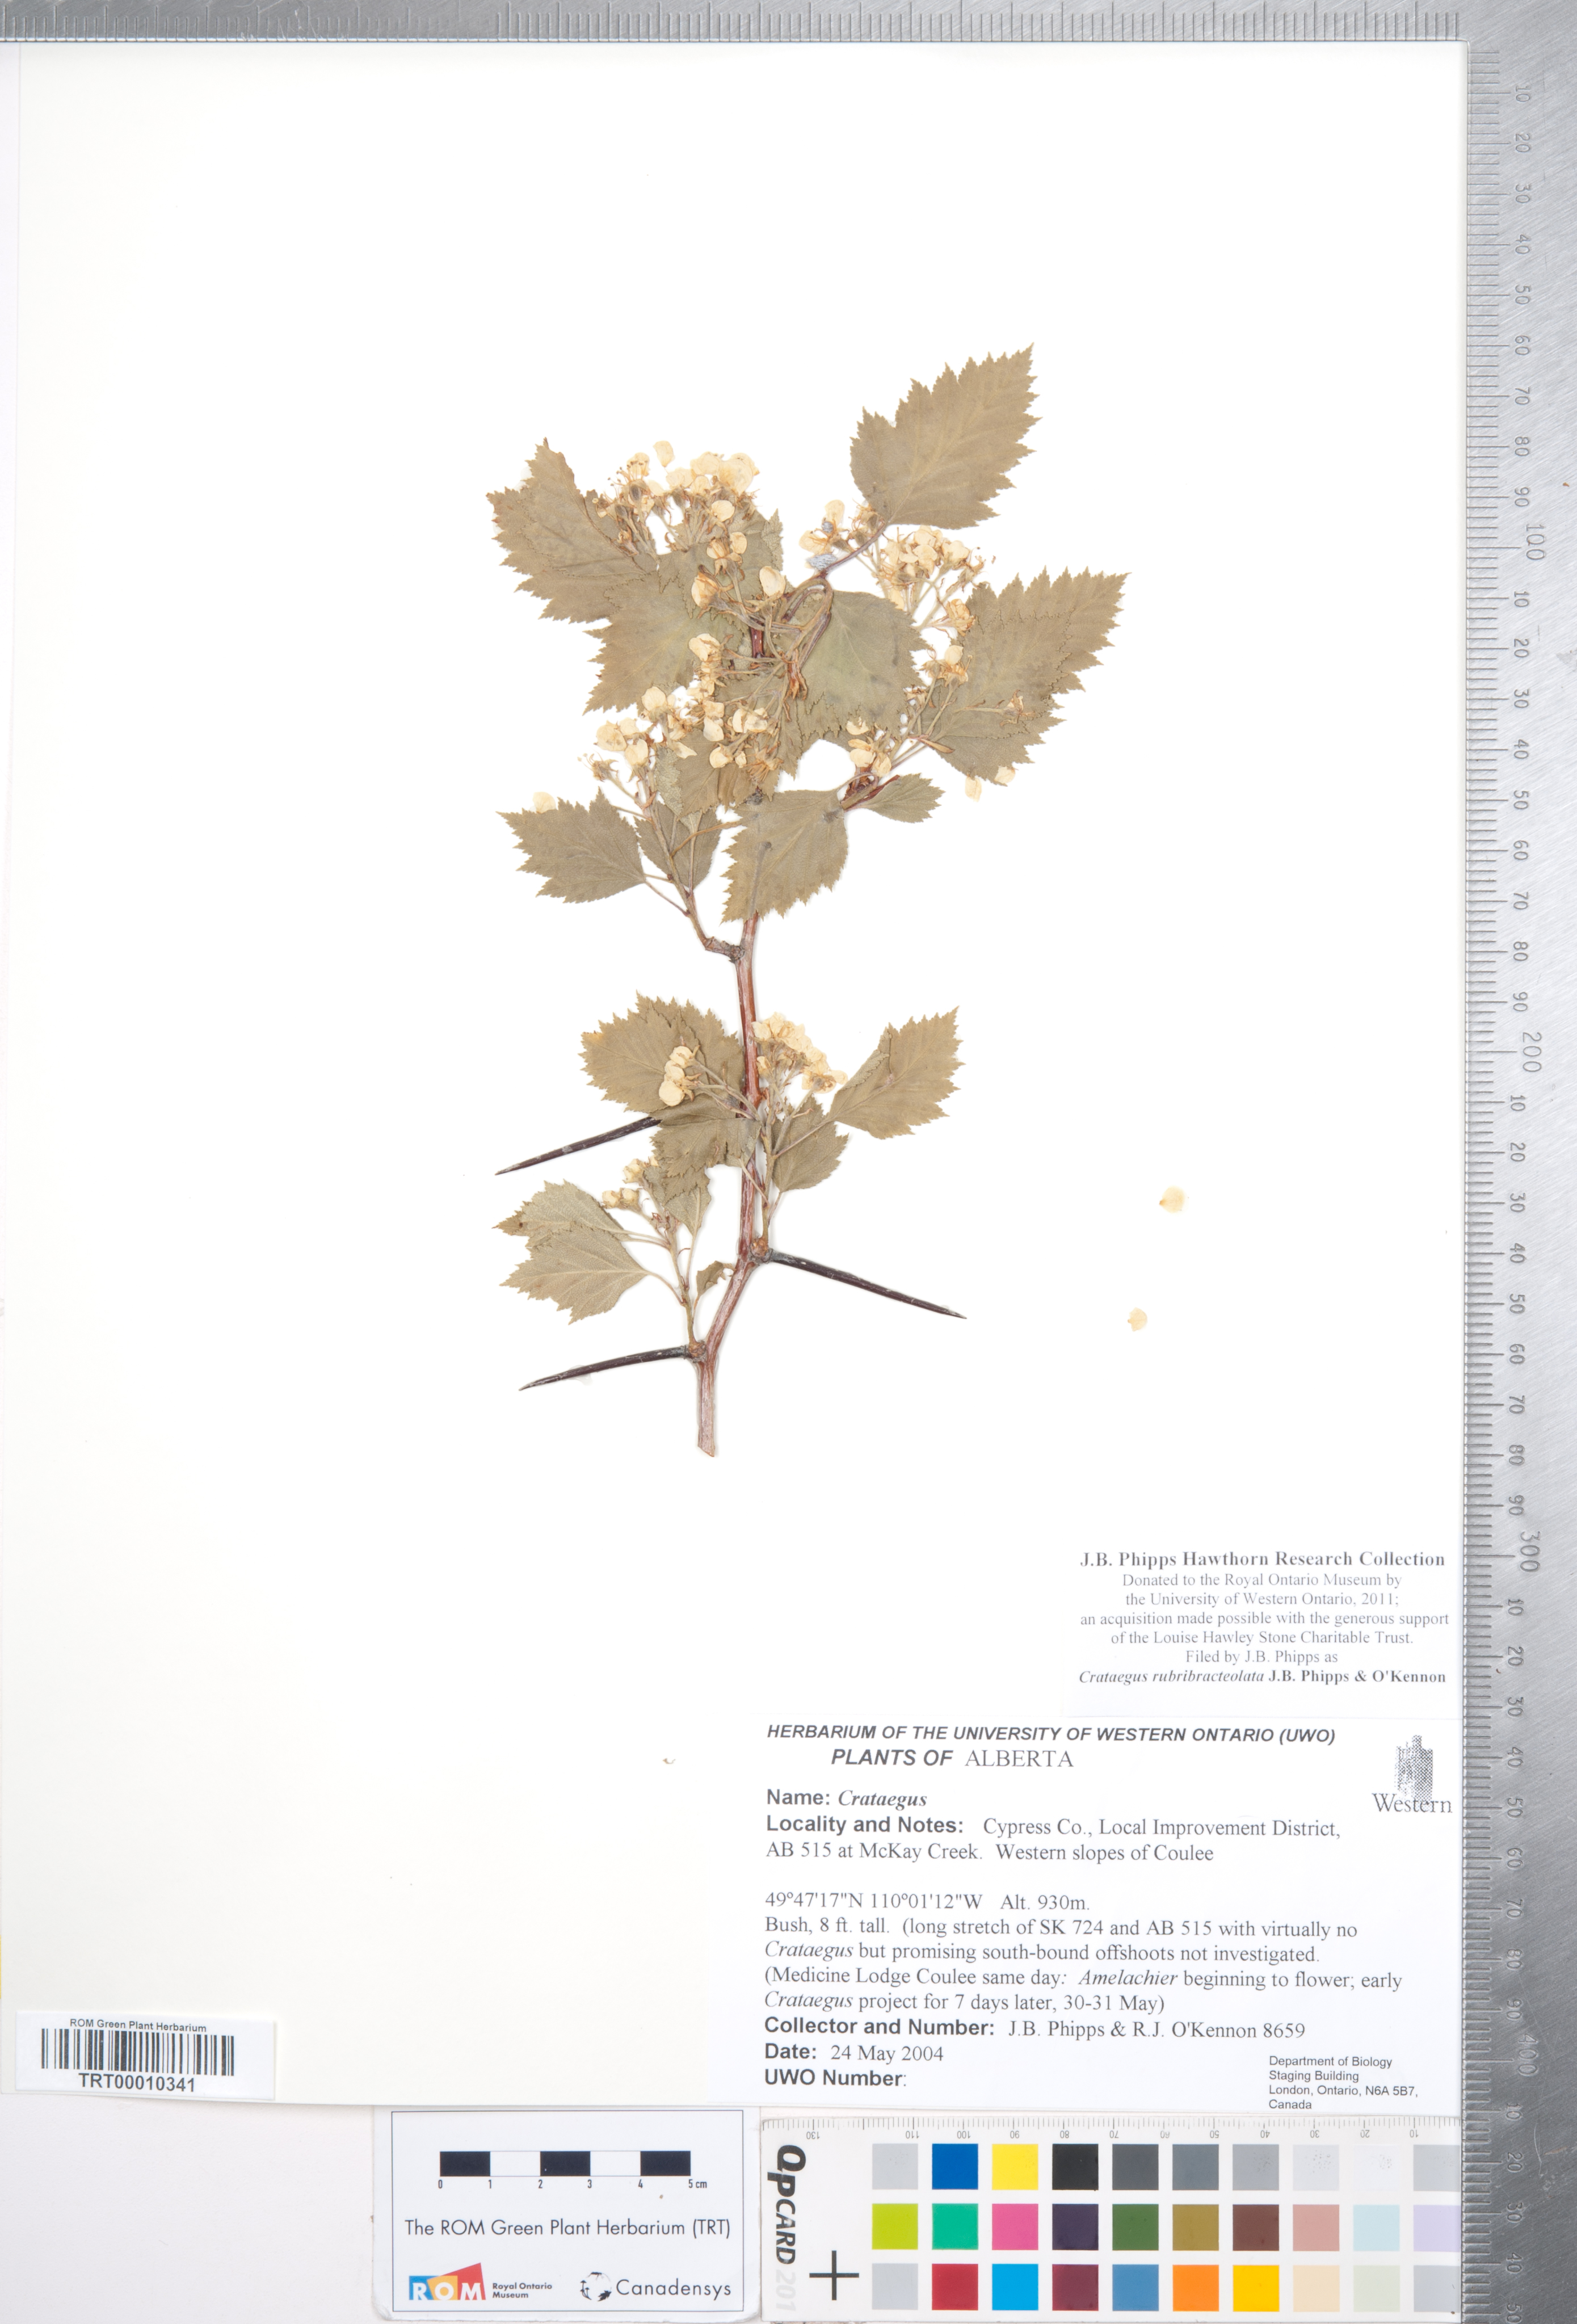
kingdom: Plantae
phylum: Tracheophyta
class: Magnoliopsida
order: Rosales
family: Rosaceae
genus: Crataegus
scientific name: Crataegus rubribracteolata
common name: Red bracteole hawthorn
